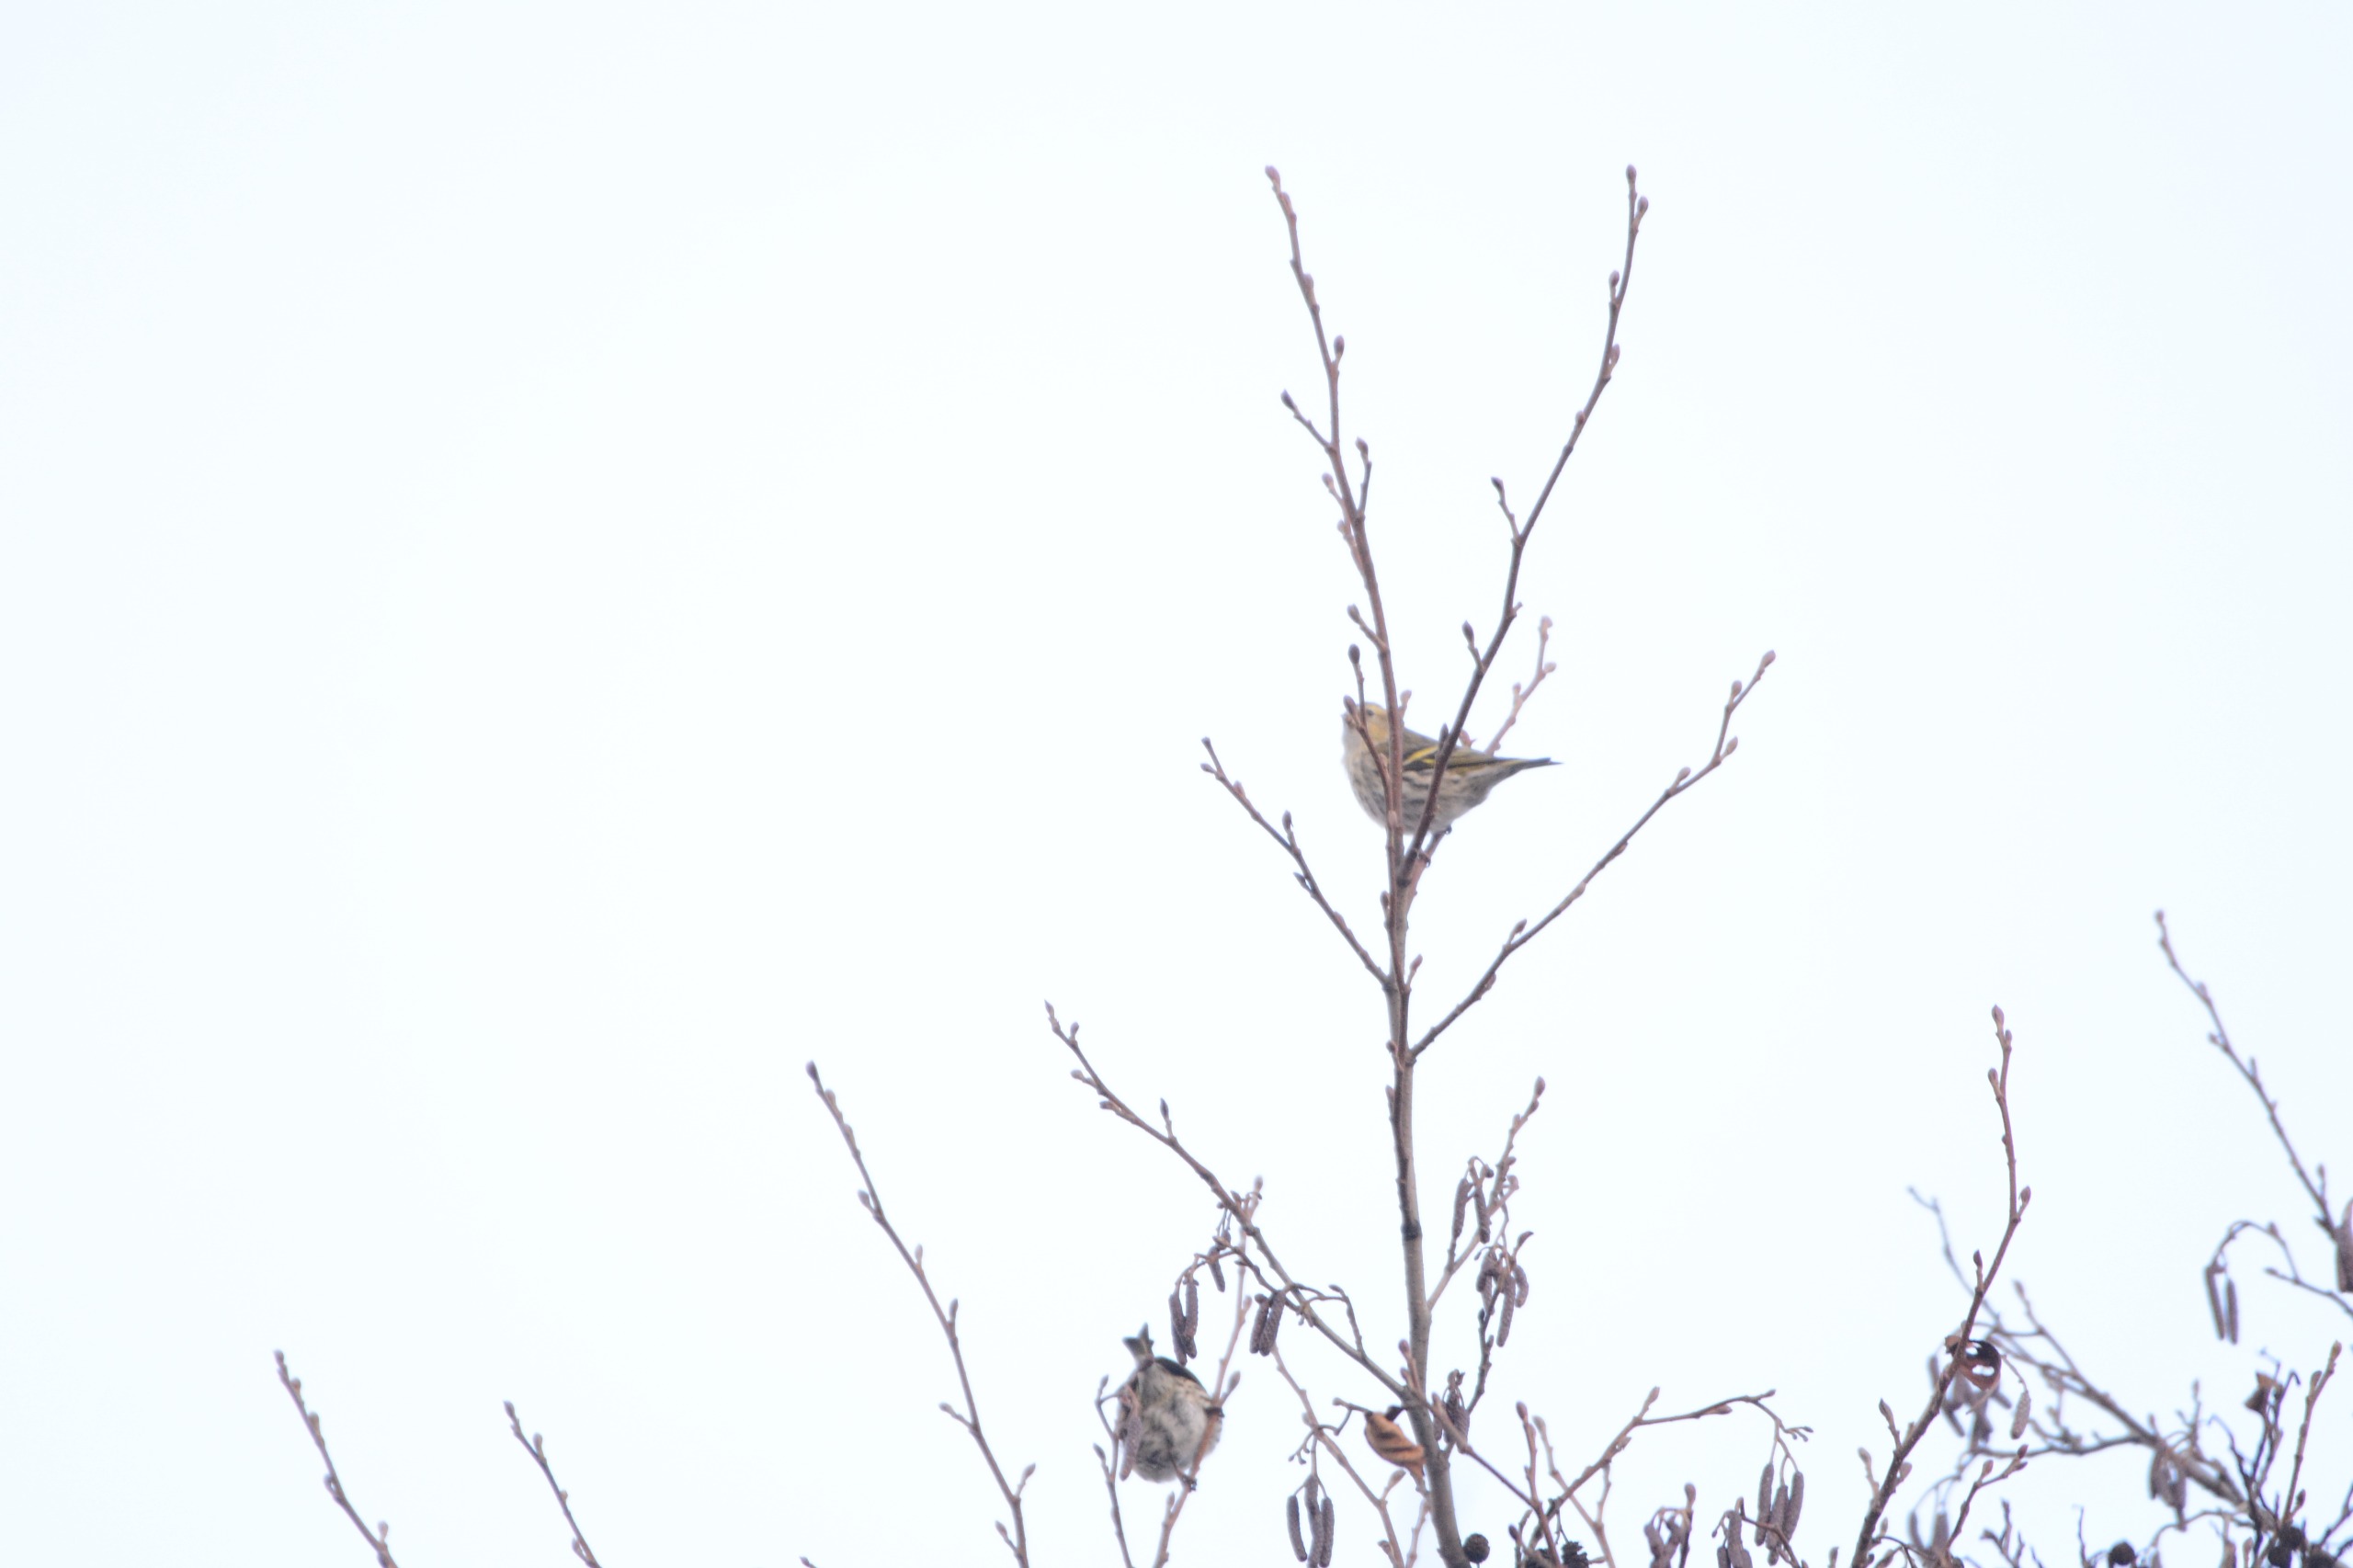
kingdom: Animalia
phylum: Chordata
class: Aves
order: Passeriformes
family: Fringillidae
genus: Spinus
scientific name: Spinus spinus
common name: Grønsisken
